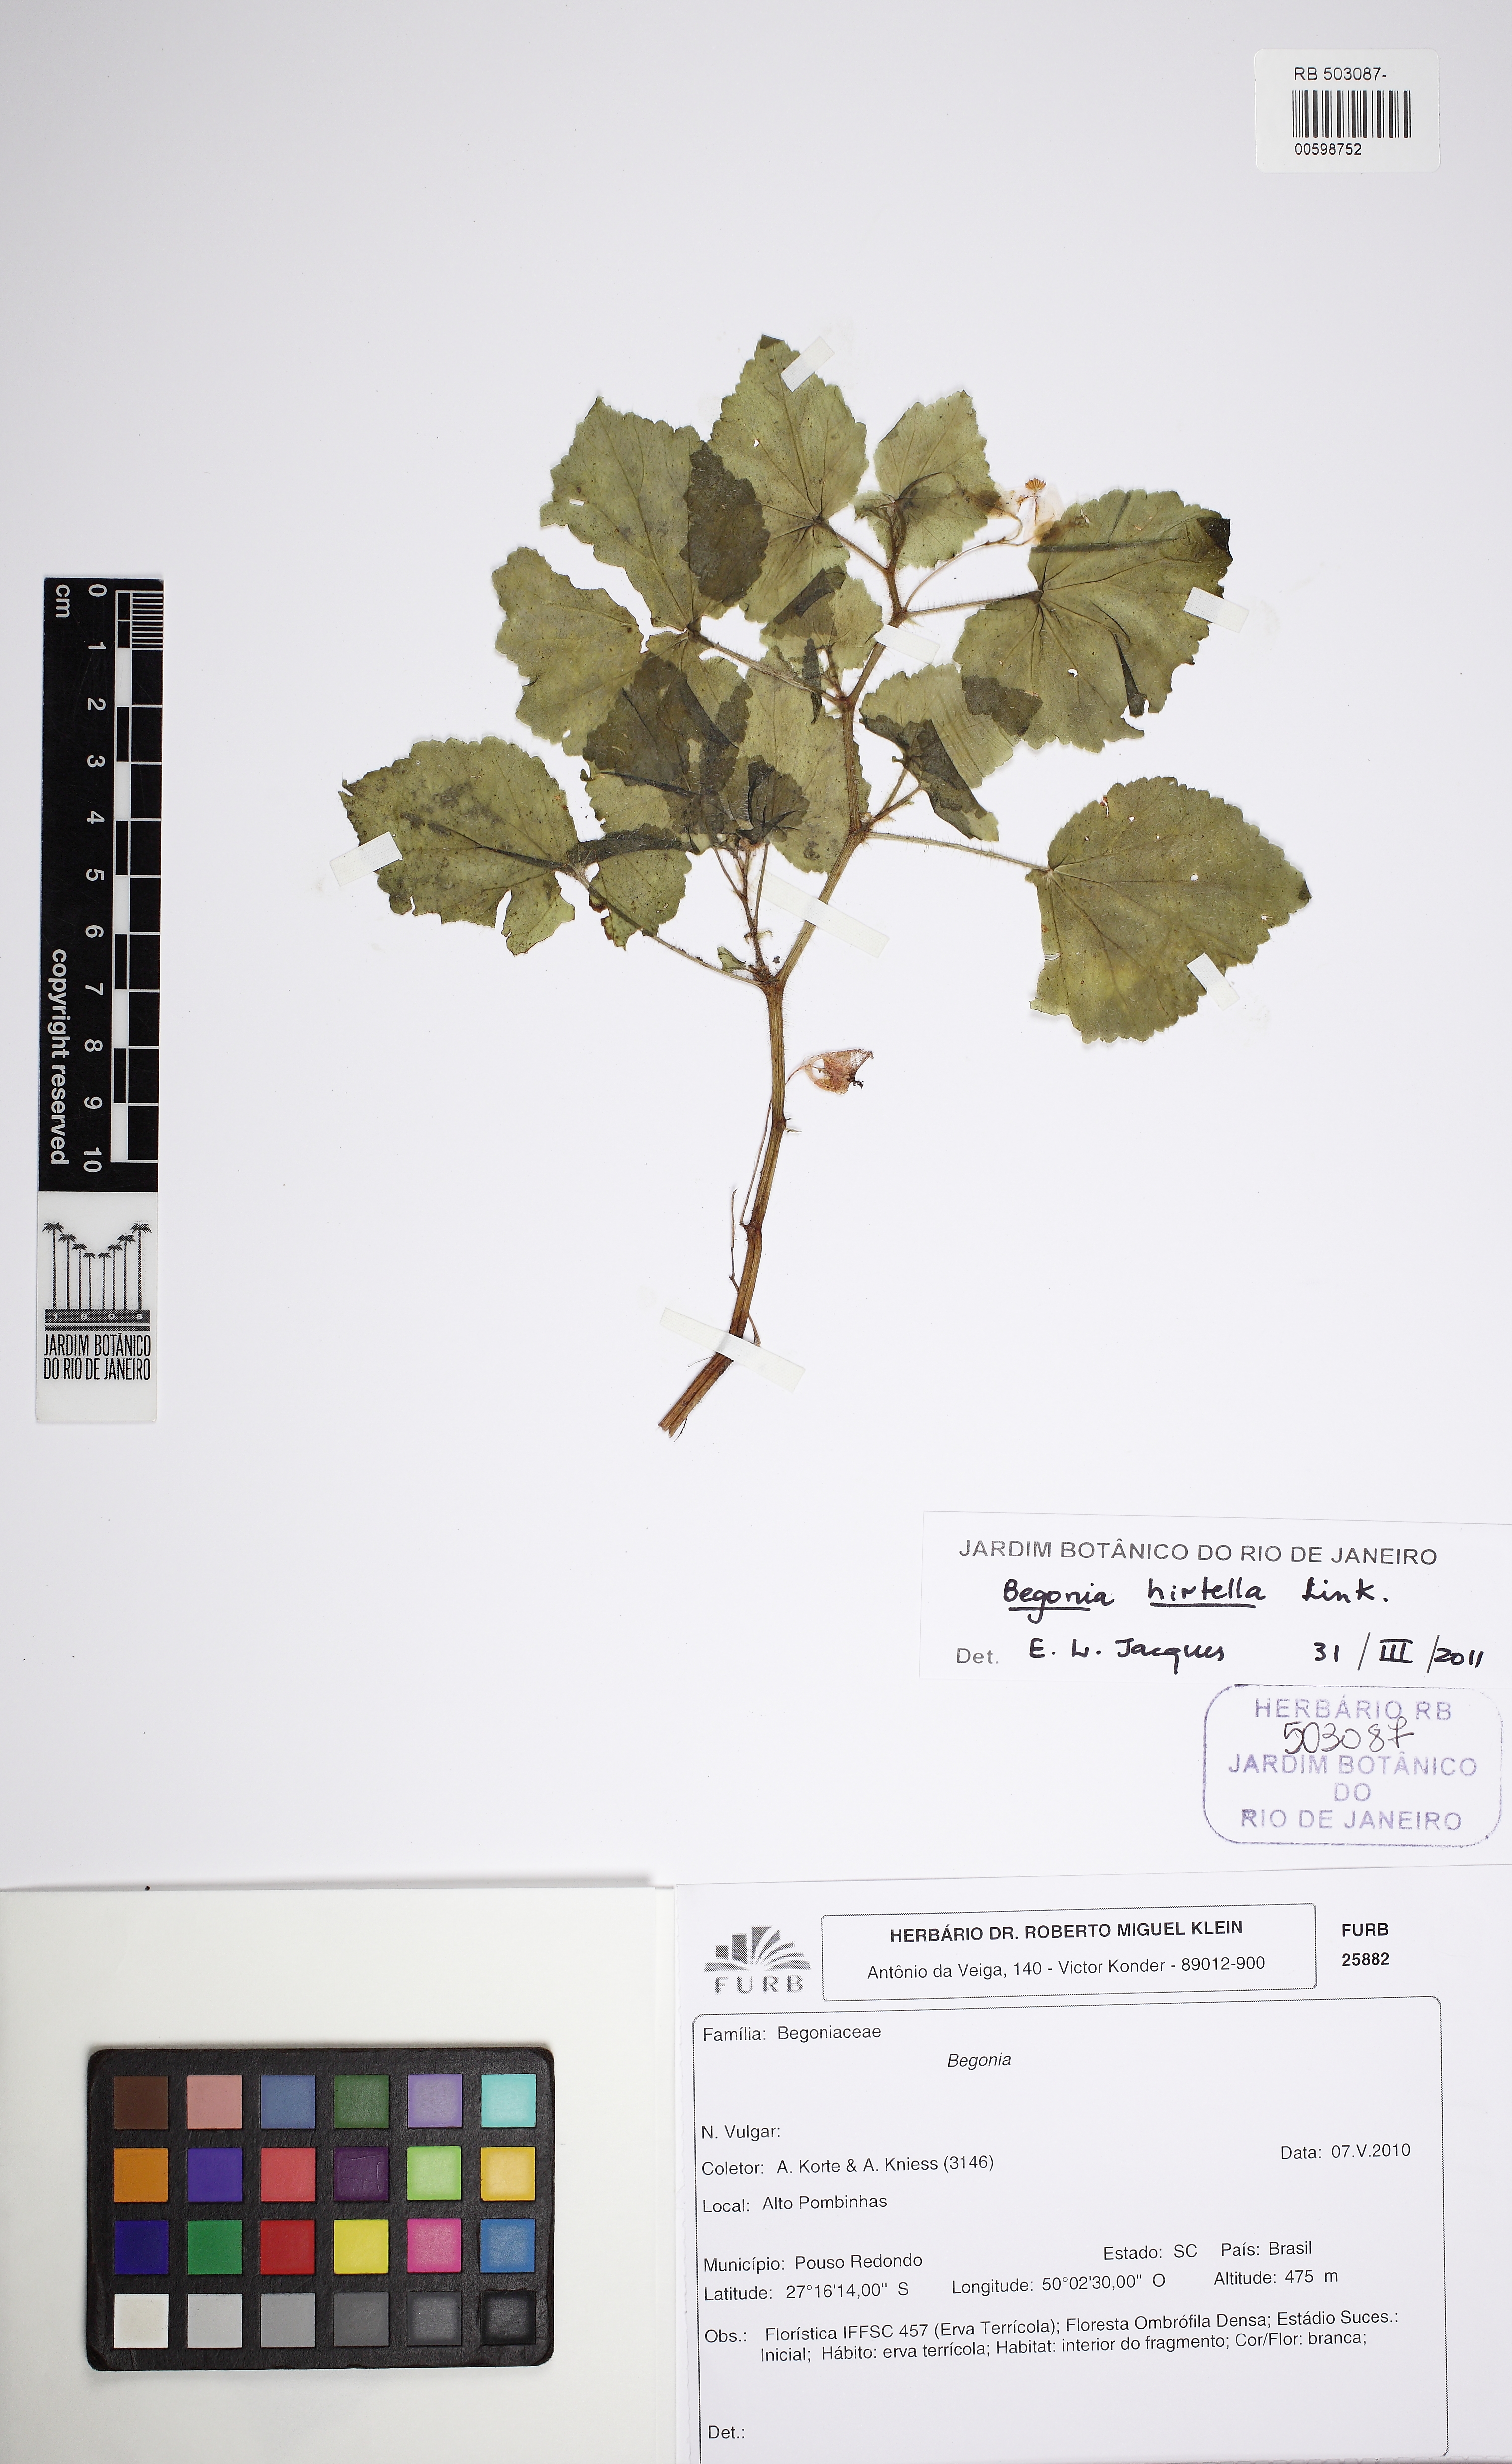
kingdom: Plantae
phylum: Tracheophyta
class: Magnoliopsida
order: Cucurbitales
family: Begoniaceae
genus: Begonia
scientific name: Begonia hirtella
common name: Brazilian begonia
